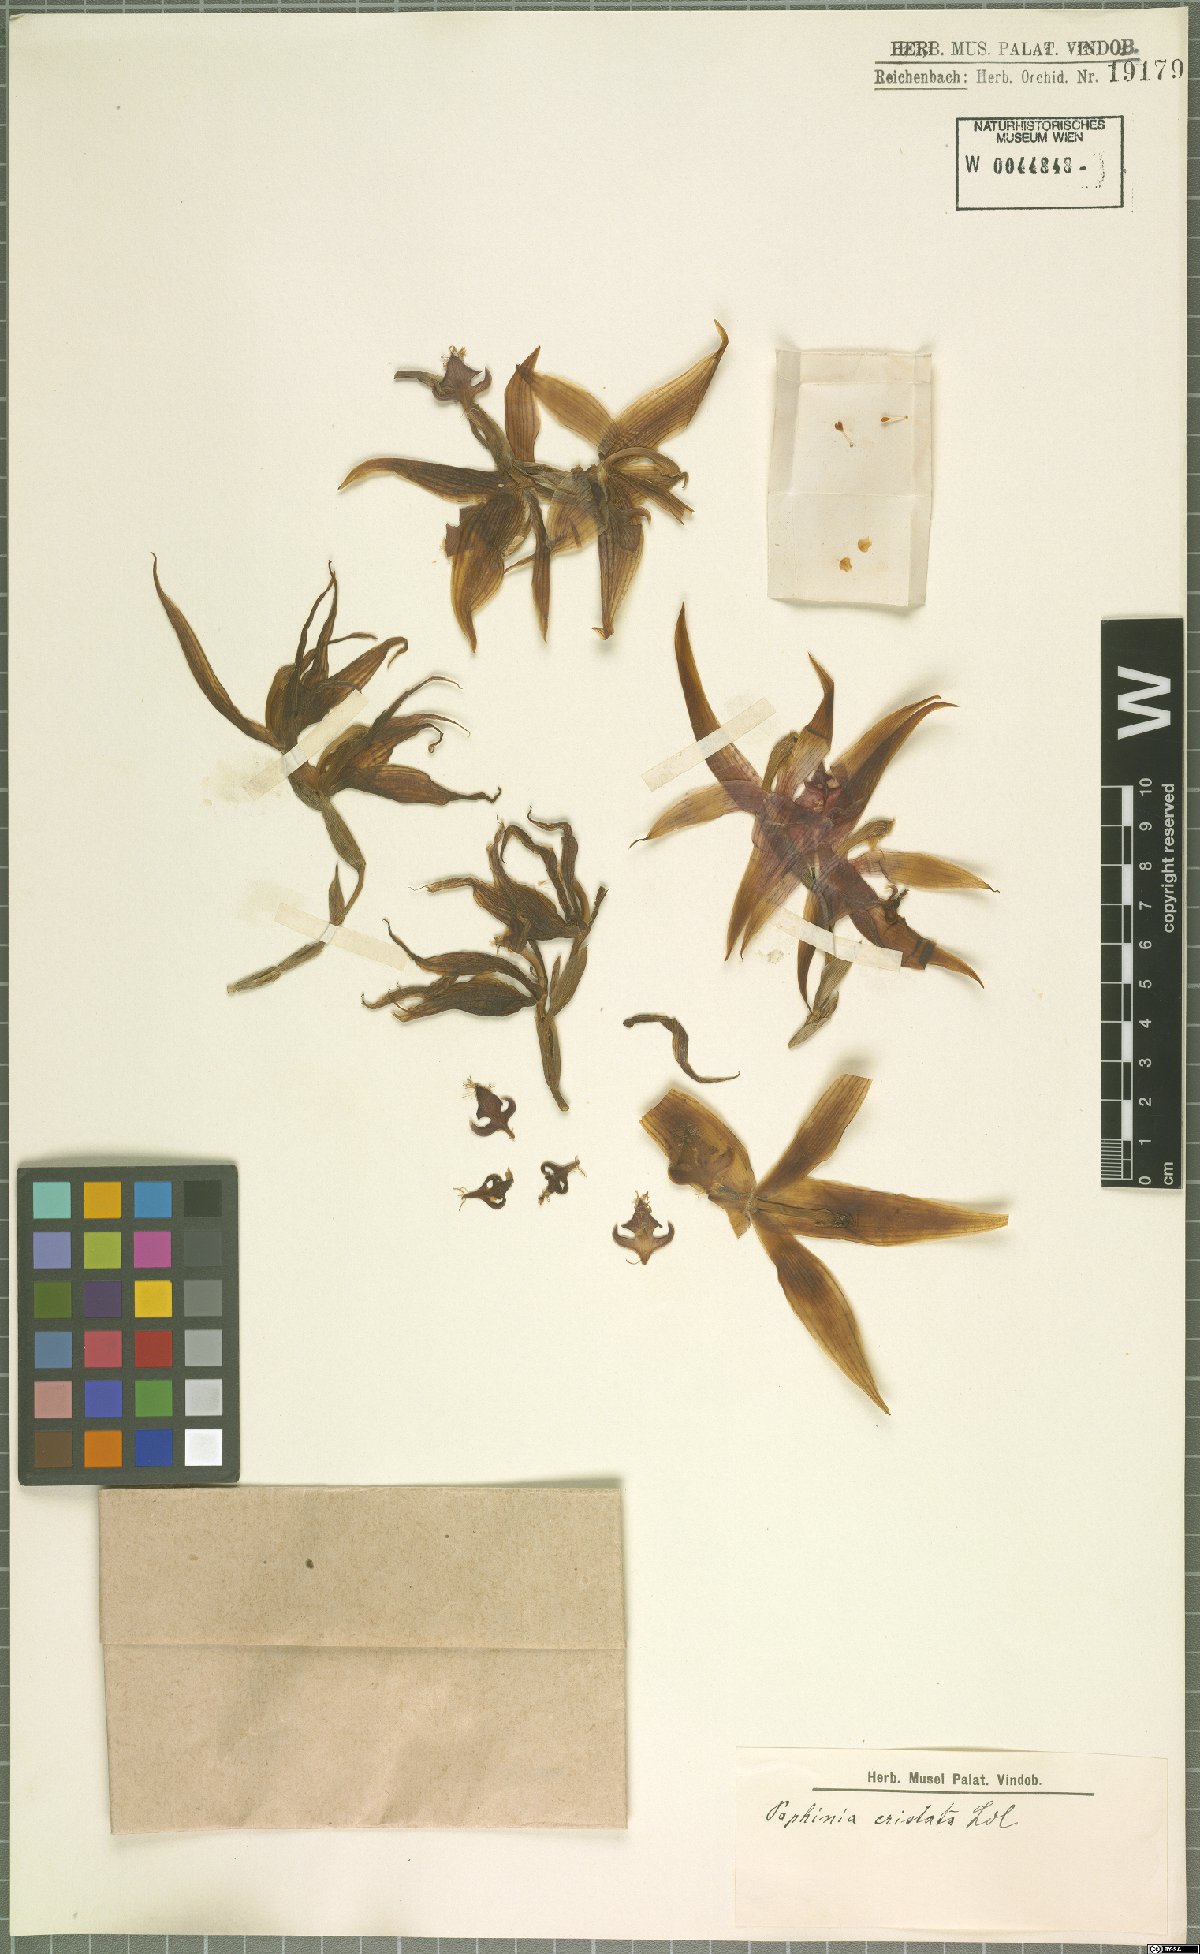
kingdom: Plantae
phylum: Tracheophyta
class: Liliopsida
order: Asparagales
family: Orchidaceae
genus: Paphinia
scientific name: Paphinia cristata
